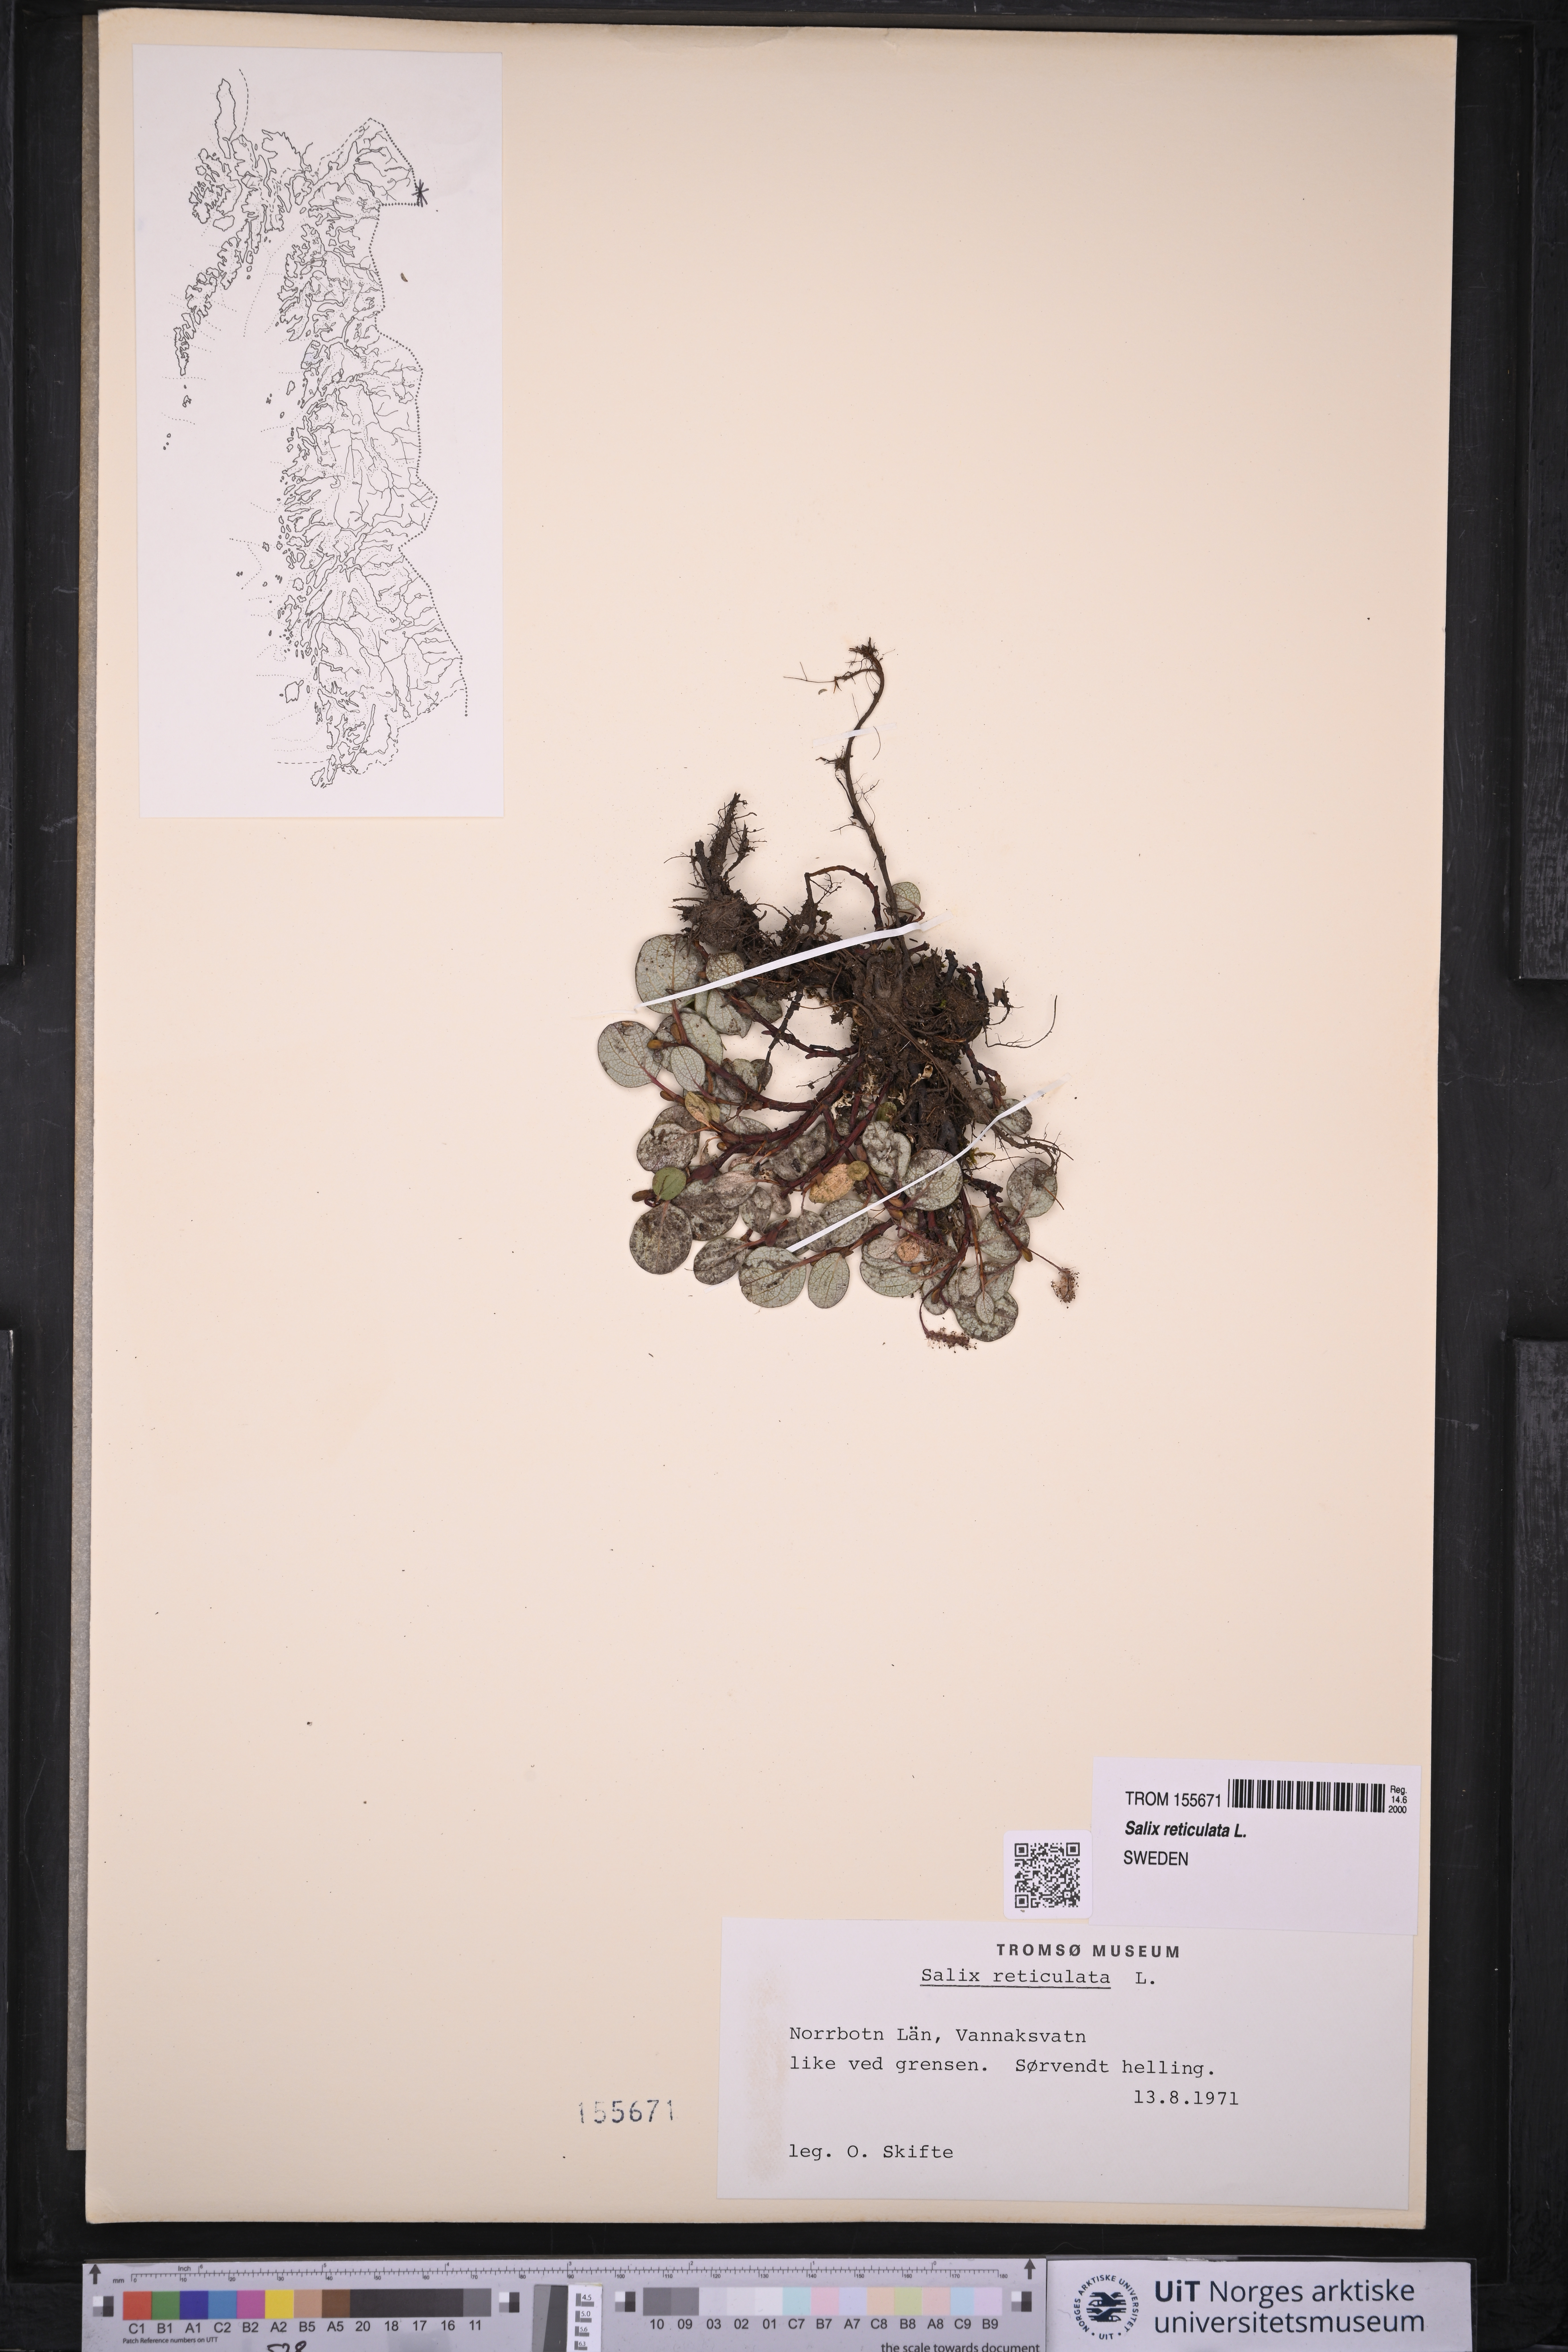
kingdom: Plantae
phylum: Tracheophyta
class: Magnoliopsida
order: Malpighiales
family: Salicaceae
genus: Salix
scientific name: Salix reticulata
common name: Net-leaved willow
